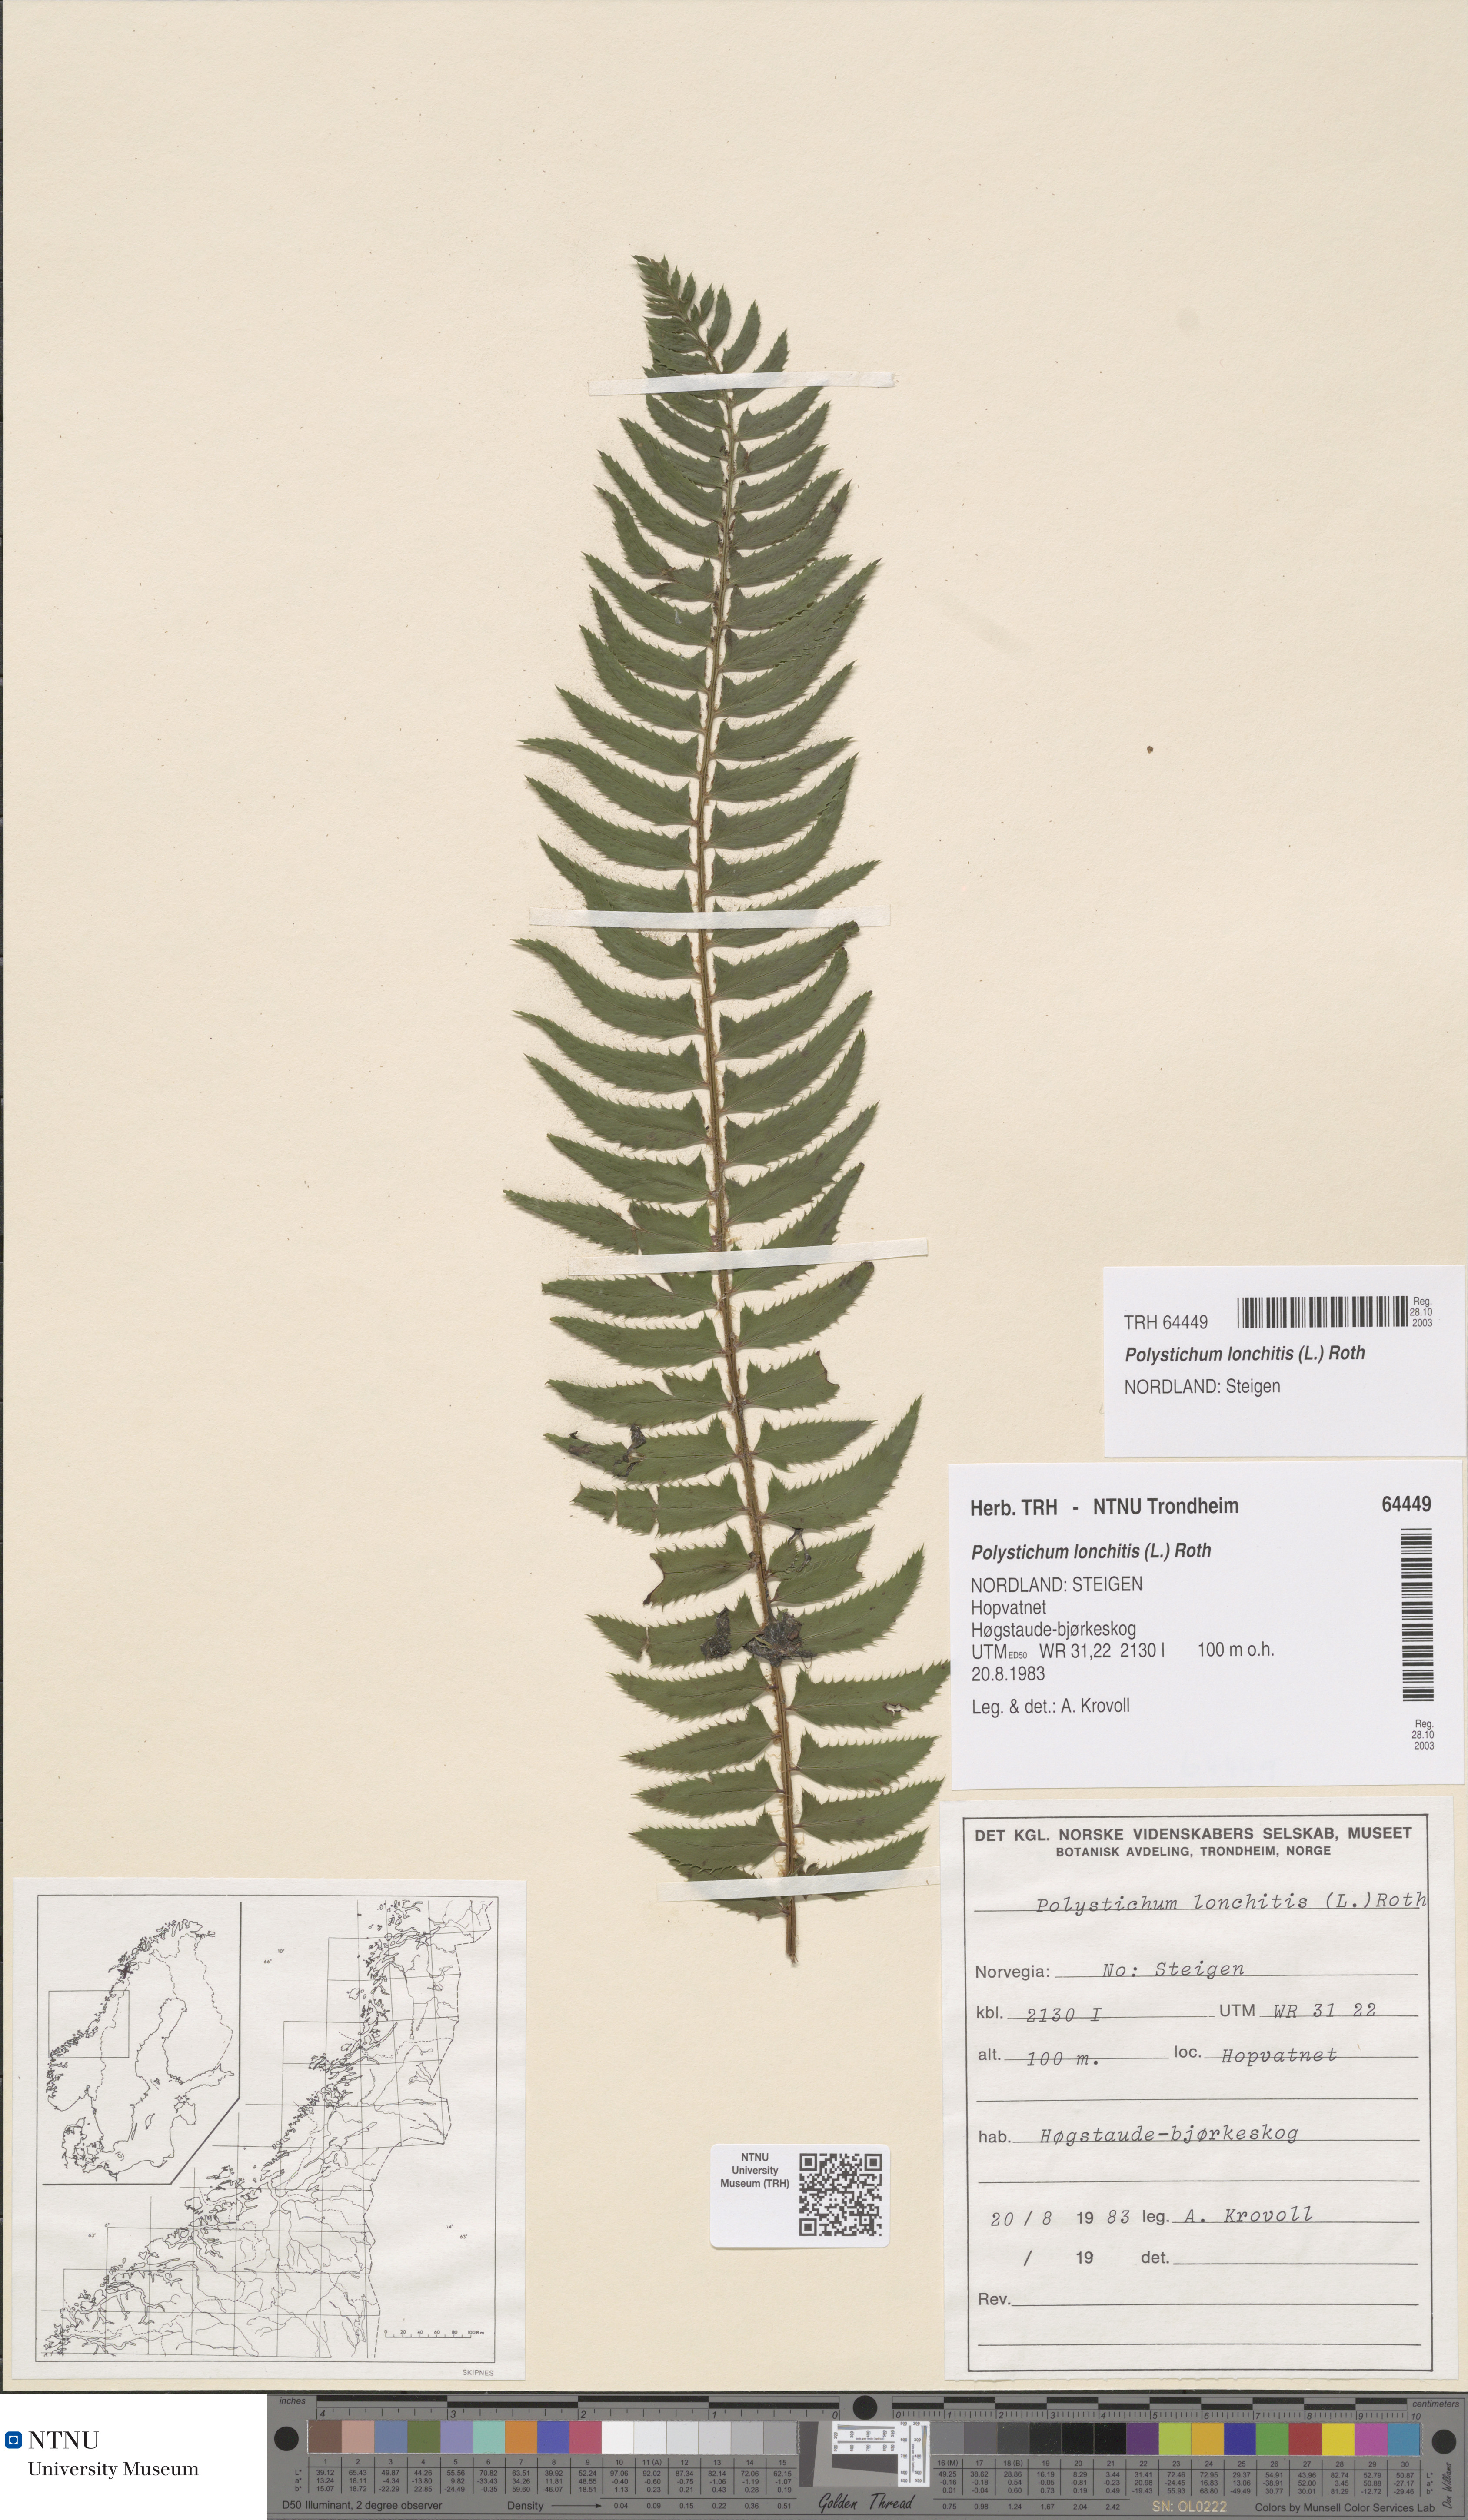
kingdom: Plantae
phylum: Tracheophyta
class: Polypodiopsida
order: Polypodiales
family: Dryopteridaceae
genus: Polystichum
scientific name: Polystichum lonchitis
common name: Holly fern
